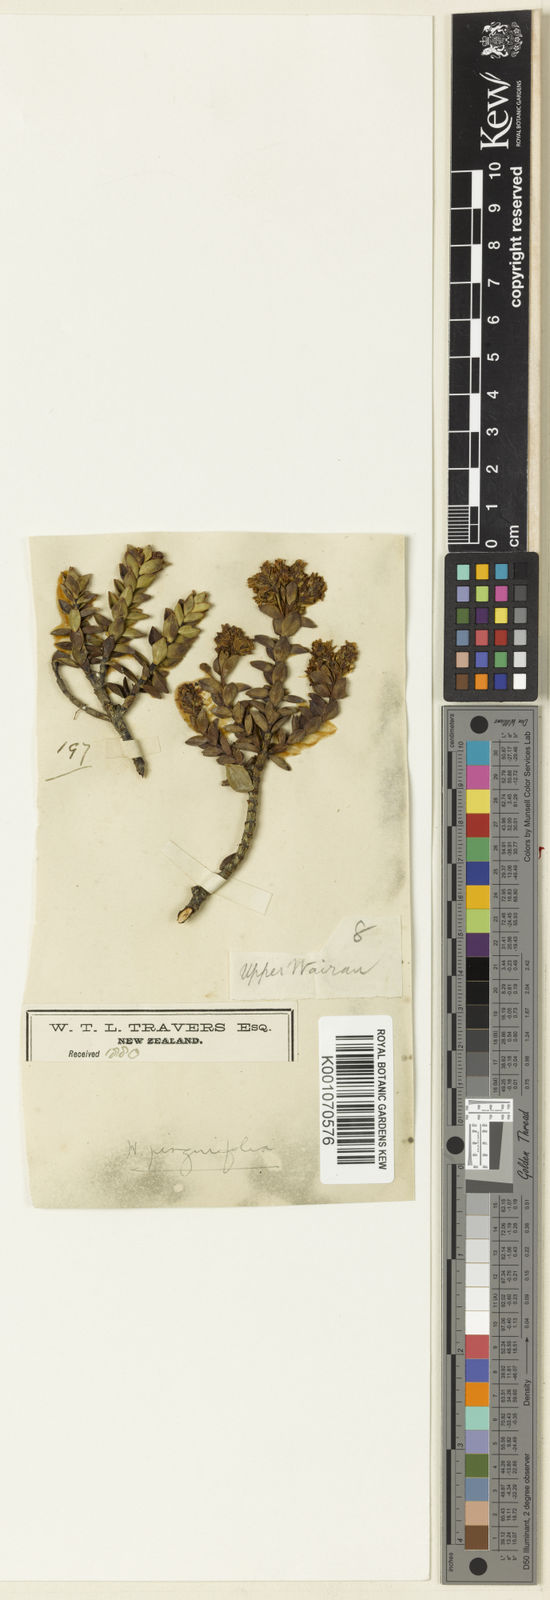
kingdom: Plantae
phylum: Tracheophyta
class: Magnoliopsida
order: Lamiales
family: Plantaginaceae
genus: Veronica
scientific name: Veronica pinguifolia
